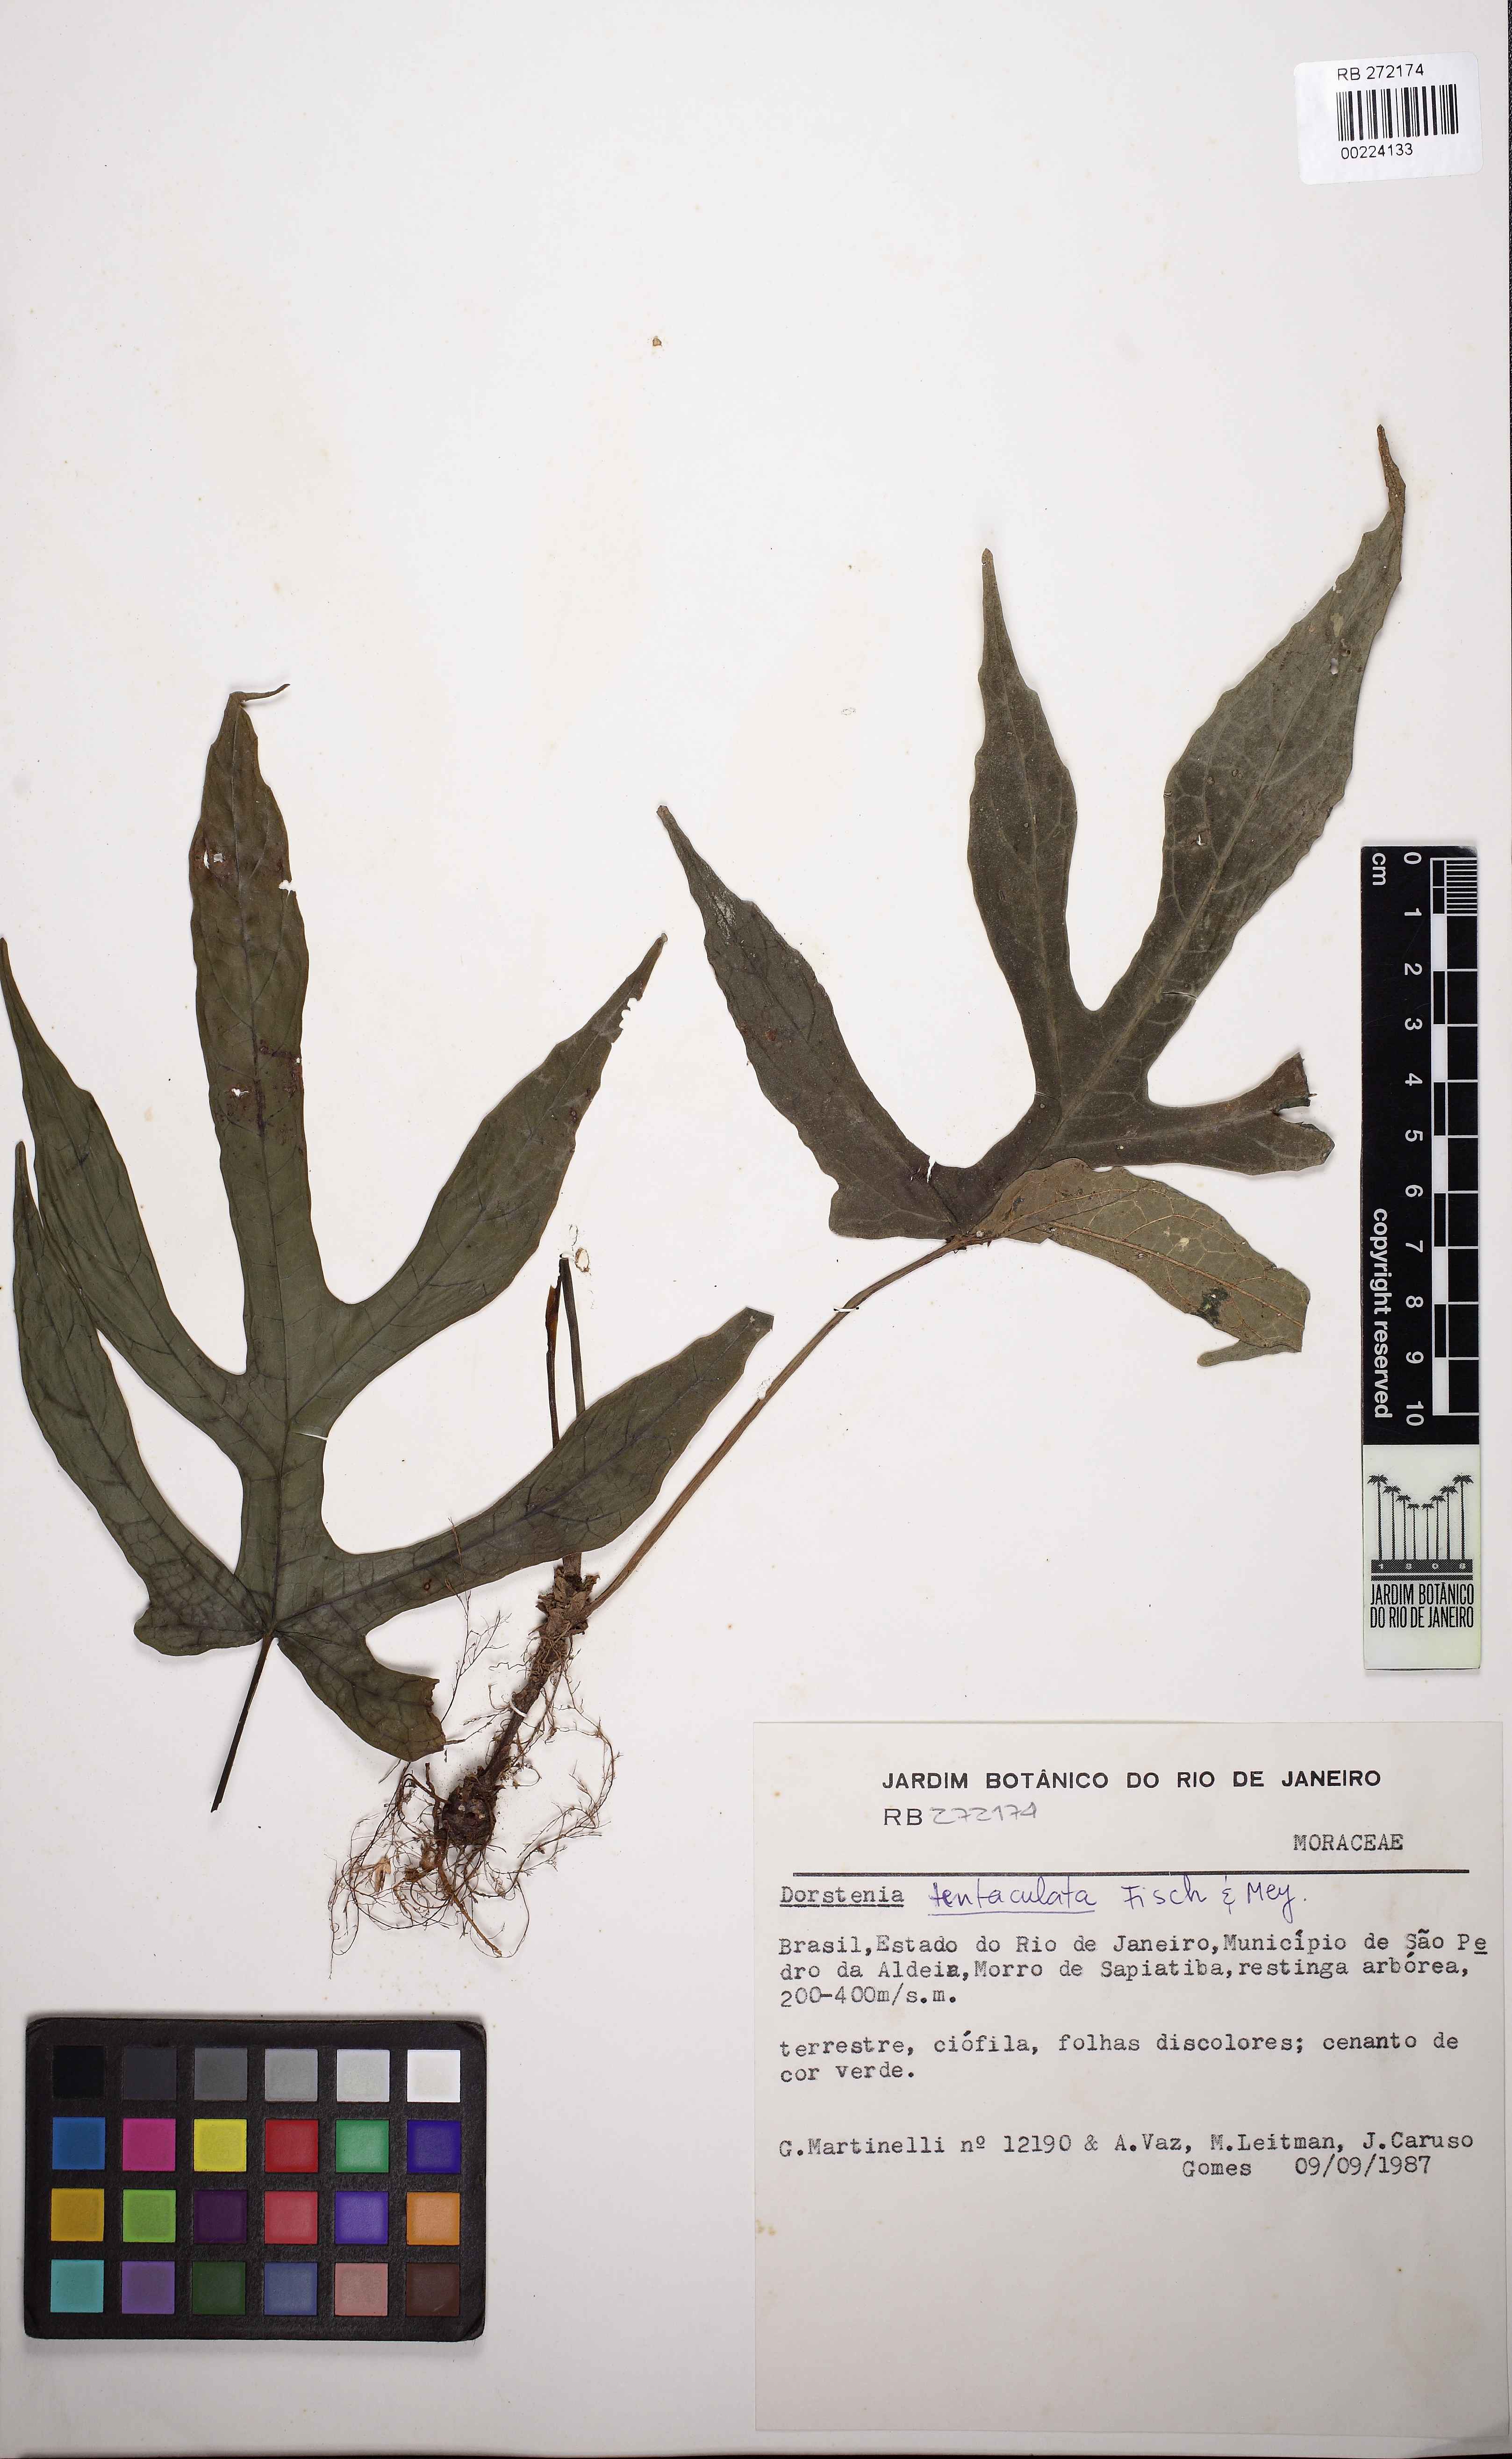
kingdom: Plantae
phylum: Tracheophyta
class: Magnoliopsida
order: Rosales
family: Moraceae
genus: Dorstenia
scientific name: Dorstenia arifolia
